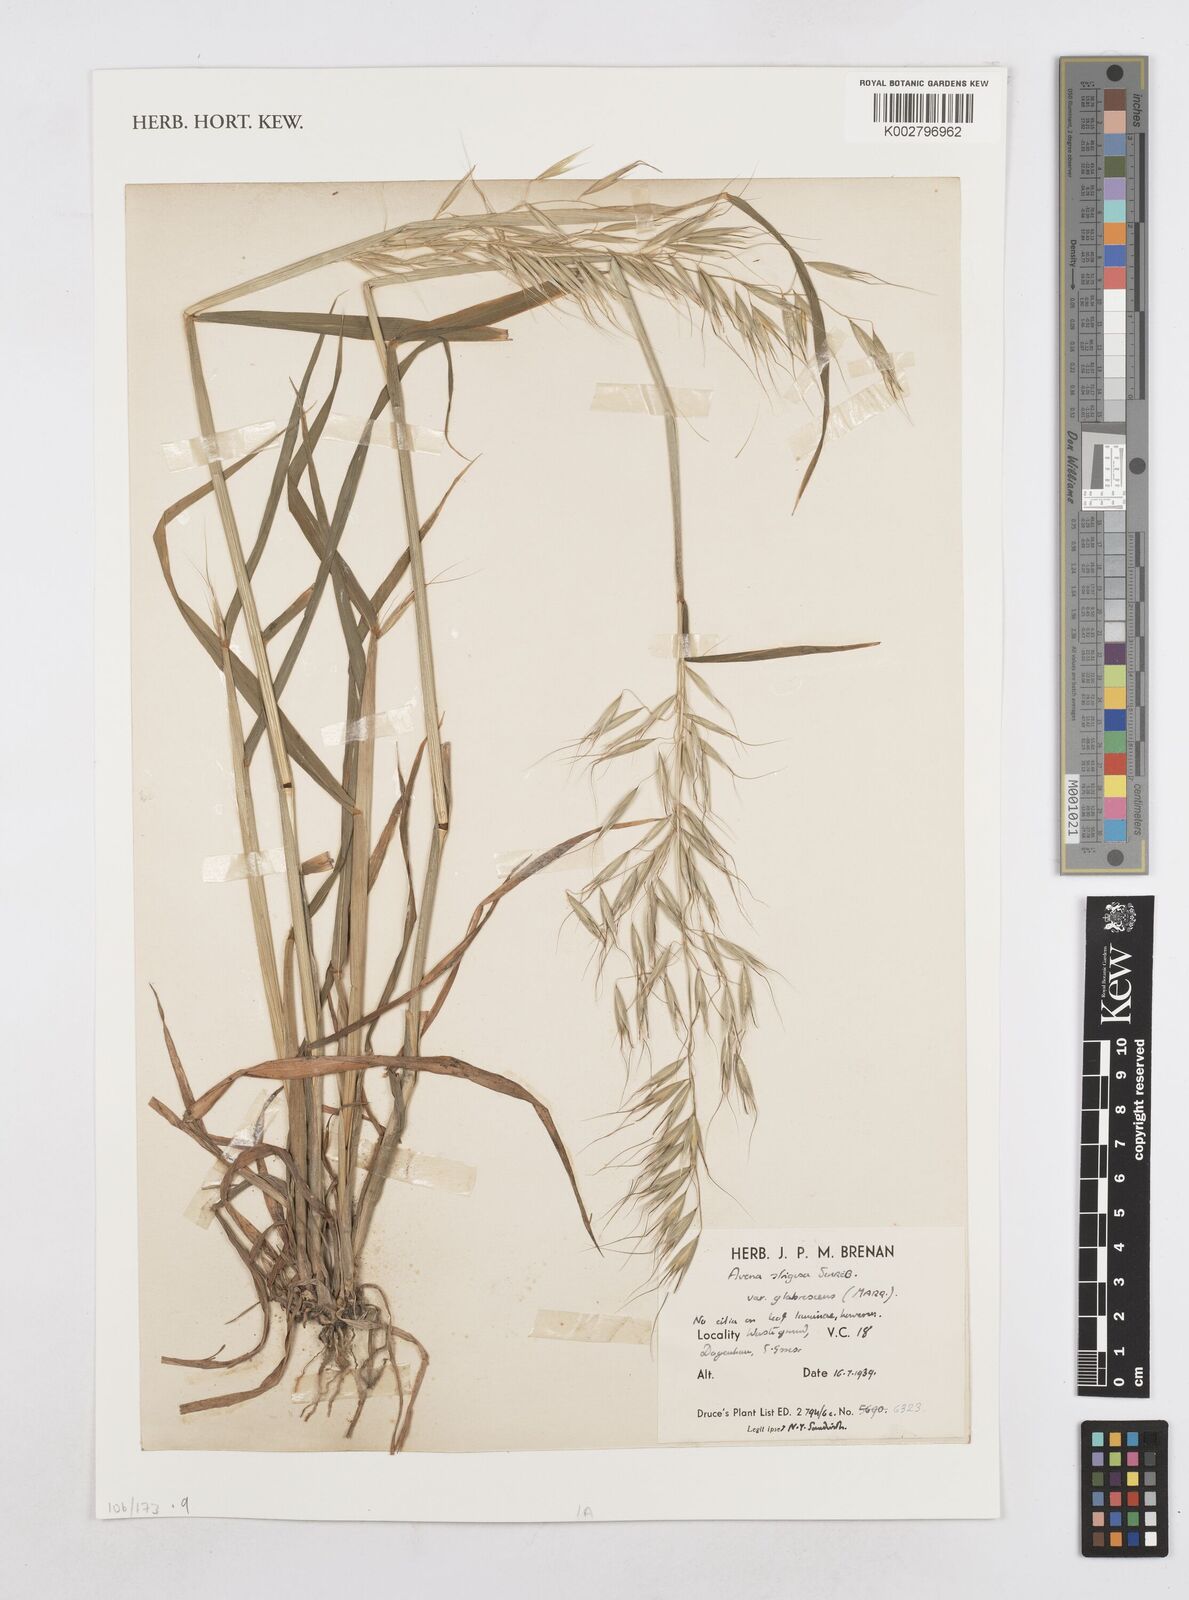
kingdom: Plantae
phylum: Tracheophyta
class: Liliopsida
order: Poales
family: Poaceae
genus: Avena
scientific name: Avena strigosa
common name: Bristle oat
